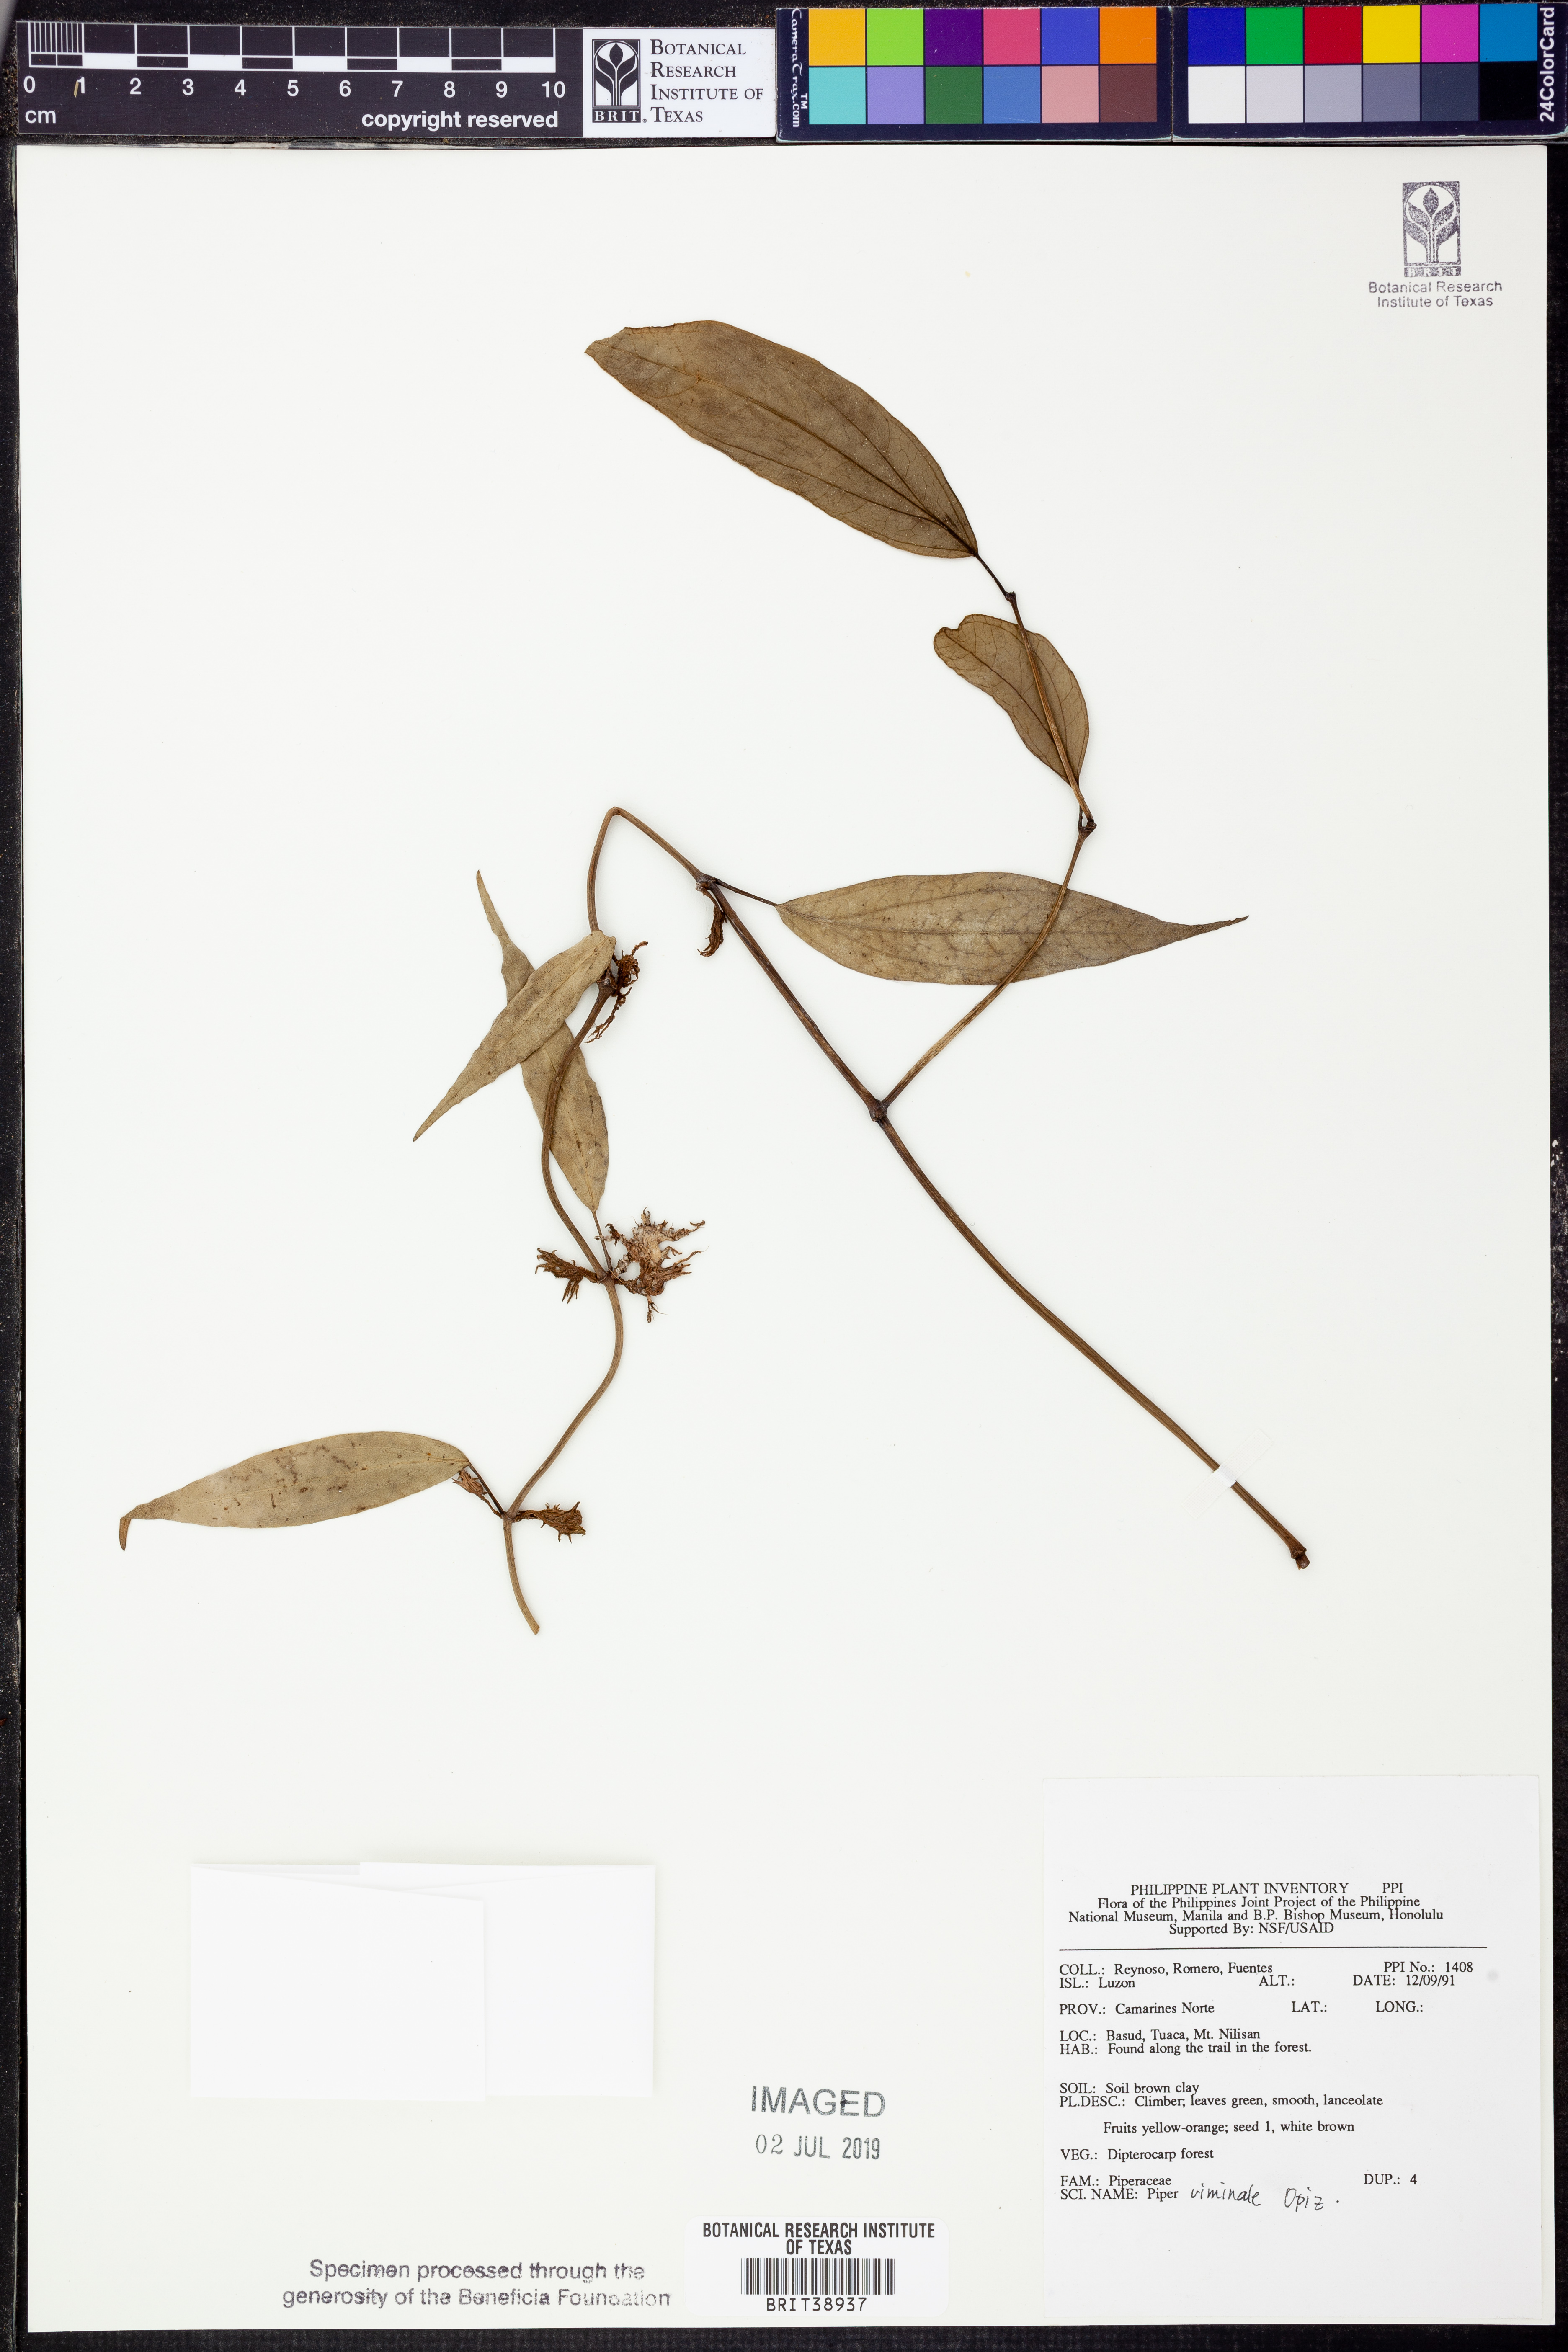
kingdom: Plantae
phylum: Tracheophyta
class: Magnoliopsida
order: Piperales
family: Piperaceae
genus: Piper
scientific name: Piper lanatum
